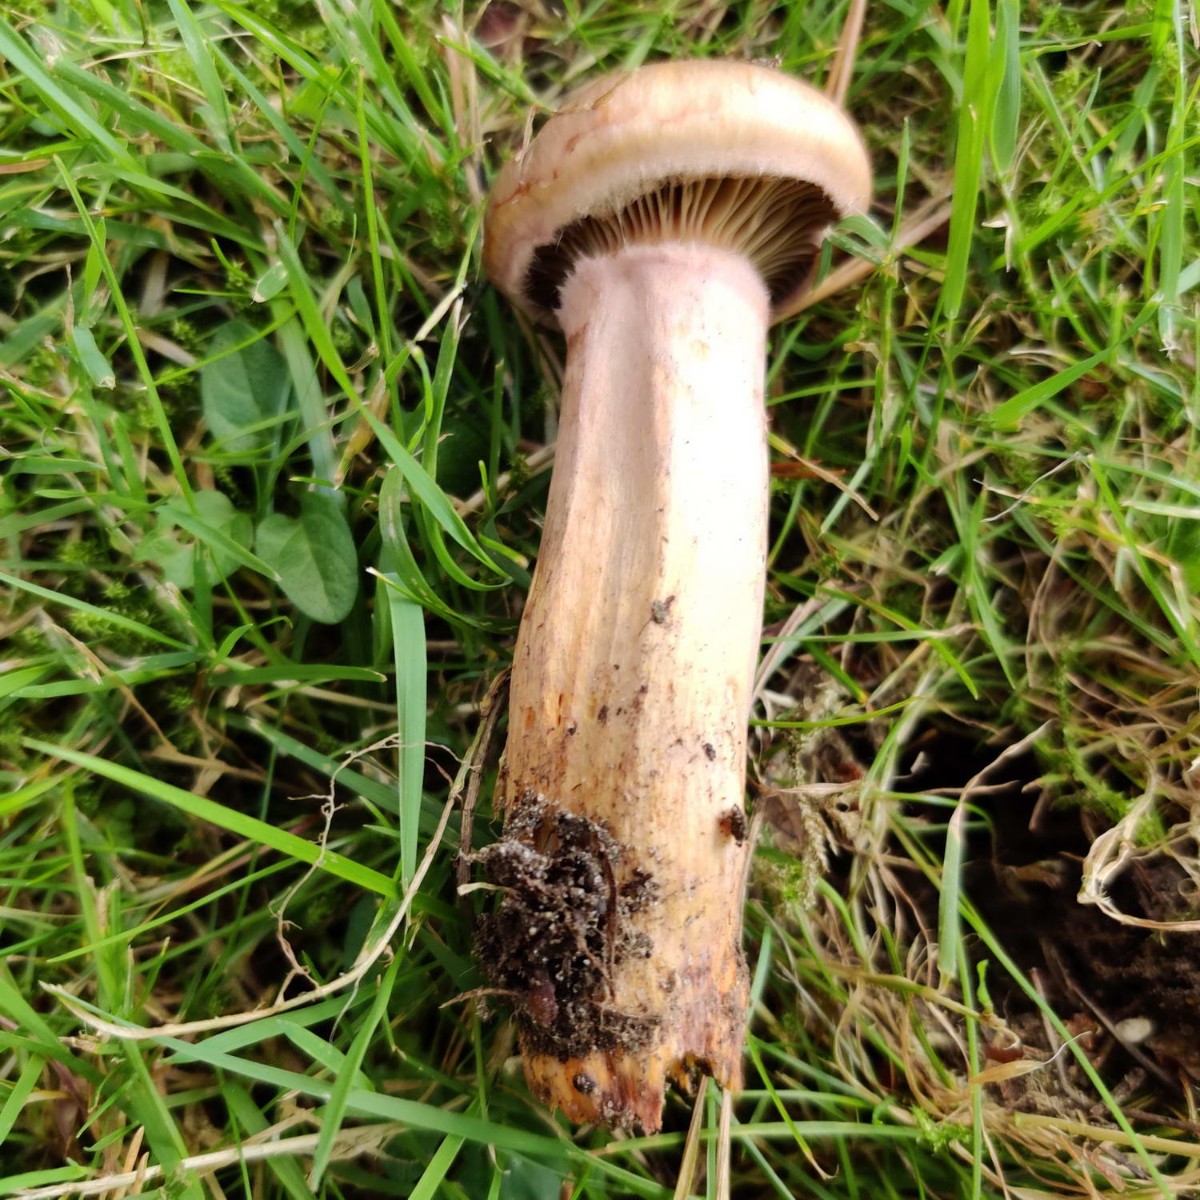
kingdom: Fungi
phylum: Basidiomycota
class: Agaricomycetes
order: Boletales
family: Gomphidiaceae
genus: Chroogomphus
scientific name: Chroogomphus rutilus
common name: brunrød slimslør
